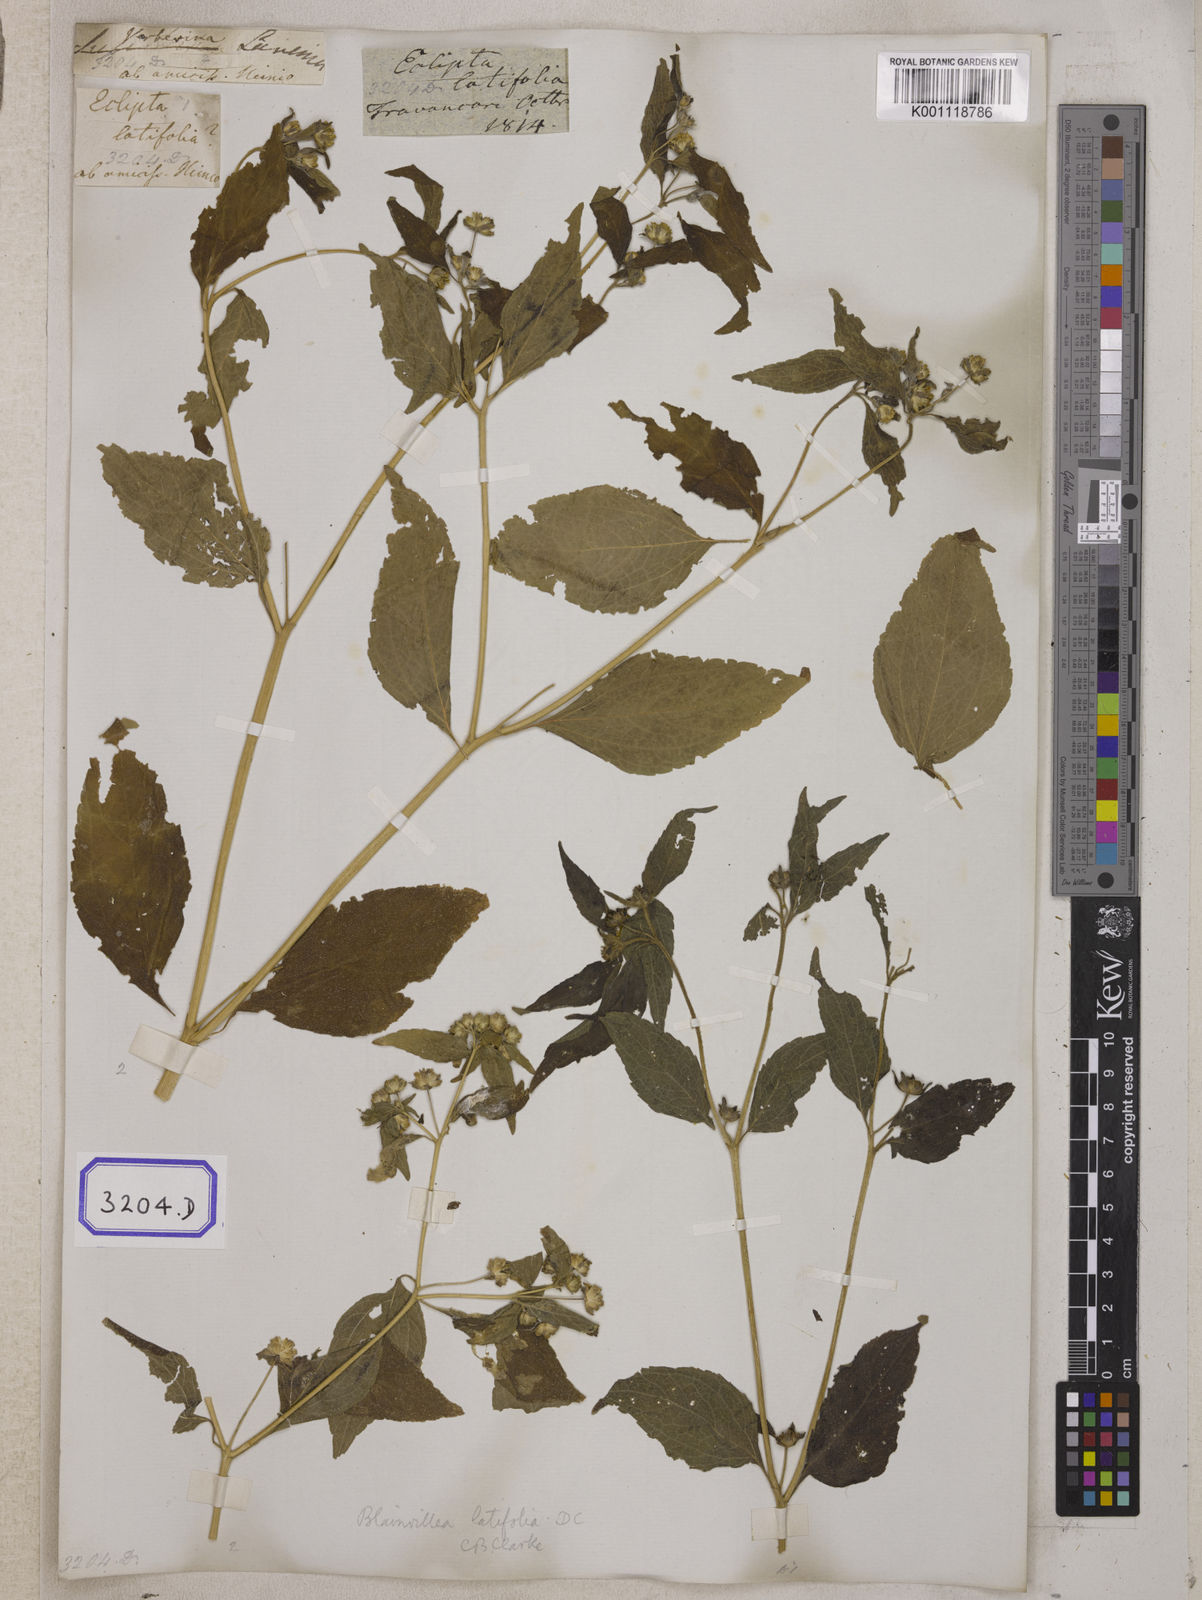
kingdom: Plantae
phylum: Tracheophyta
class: Magnoliopsida
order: Asterales
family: Asteraceae
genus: Blainvillea
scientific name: Blainvillea acmella
